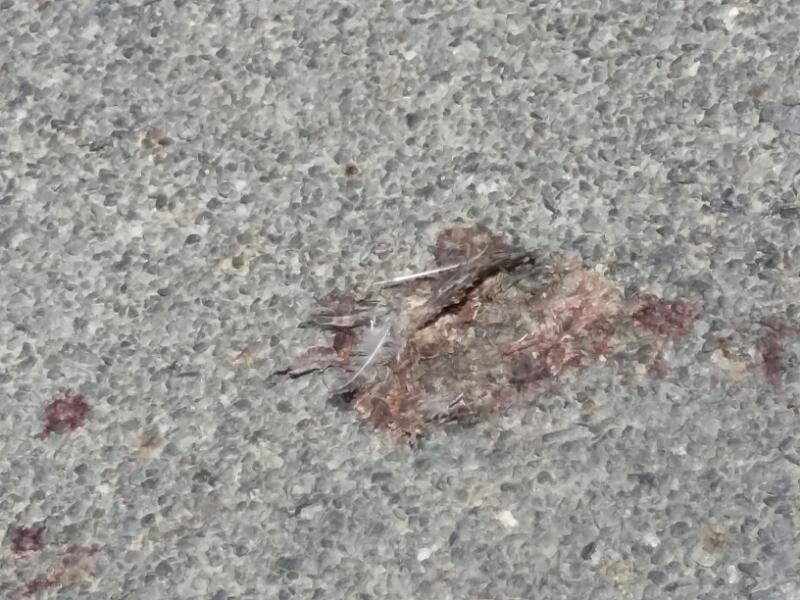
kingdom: Animalia
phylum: Chordata
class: Aves
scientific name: Aves
